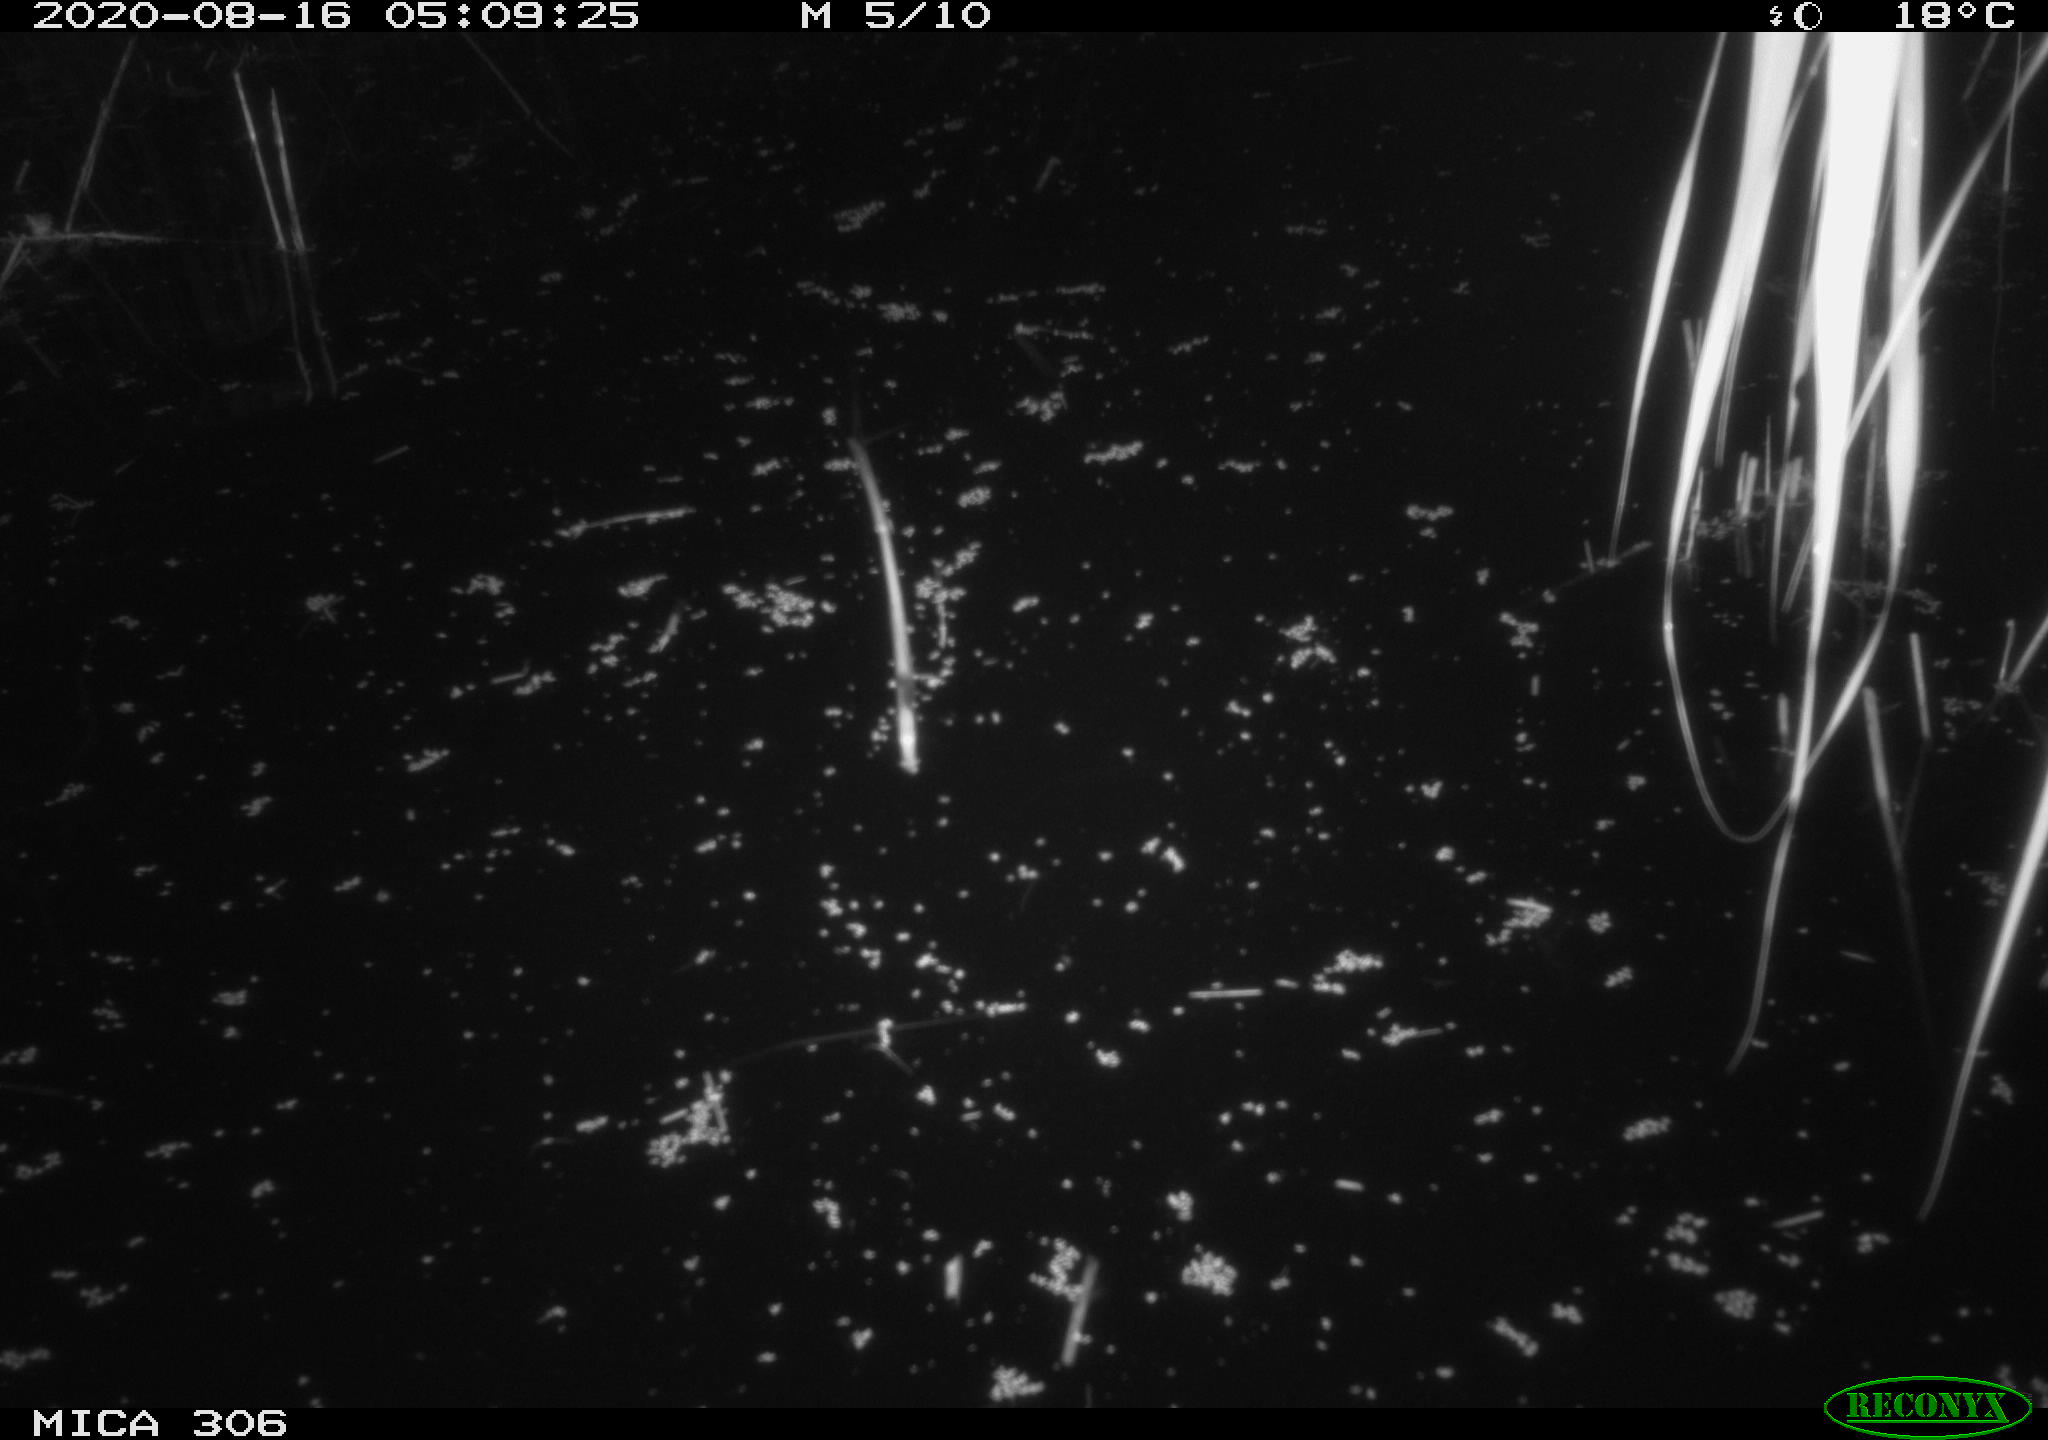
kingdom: Animalia
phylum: Chordata
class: Mammalia
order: Rodentia
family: Muridae
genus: Rattus
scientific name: Rattus norvegicus
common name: Brown rat
